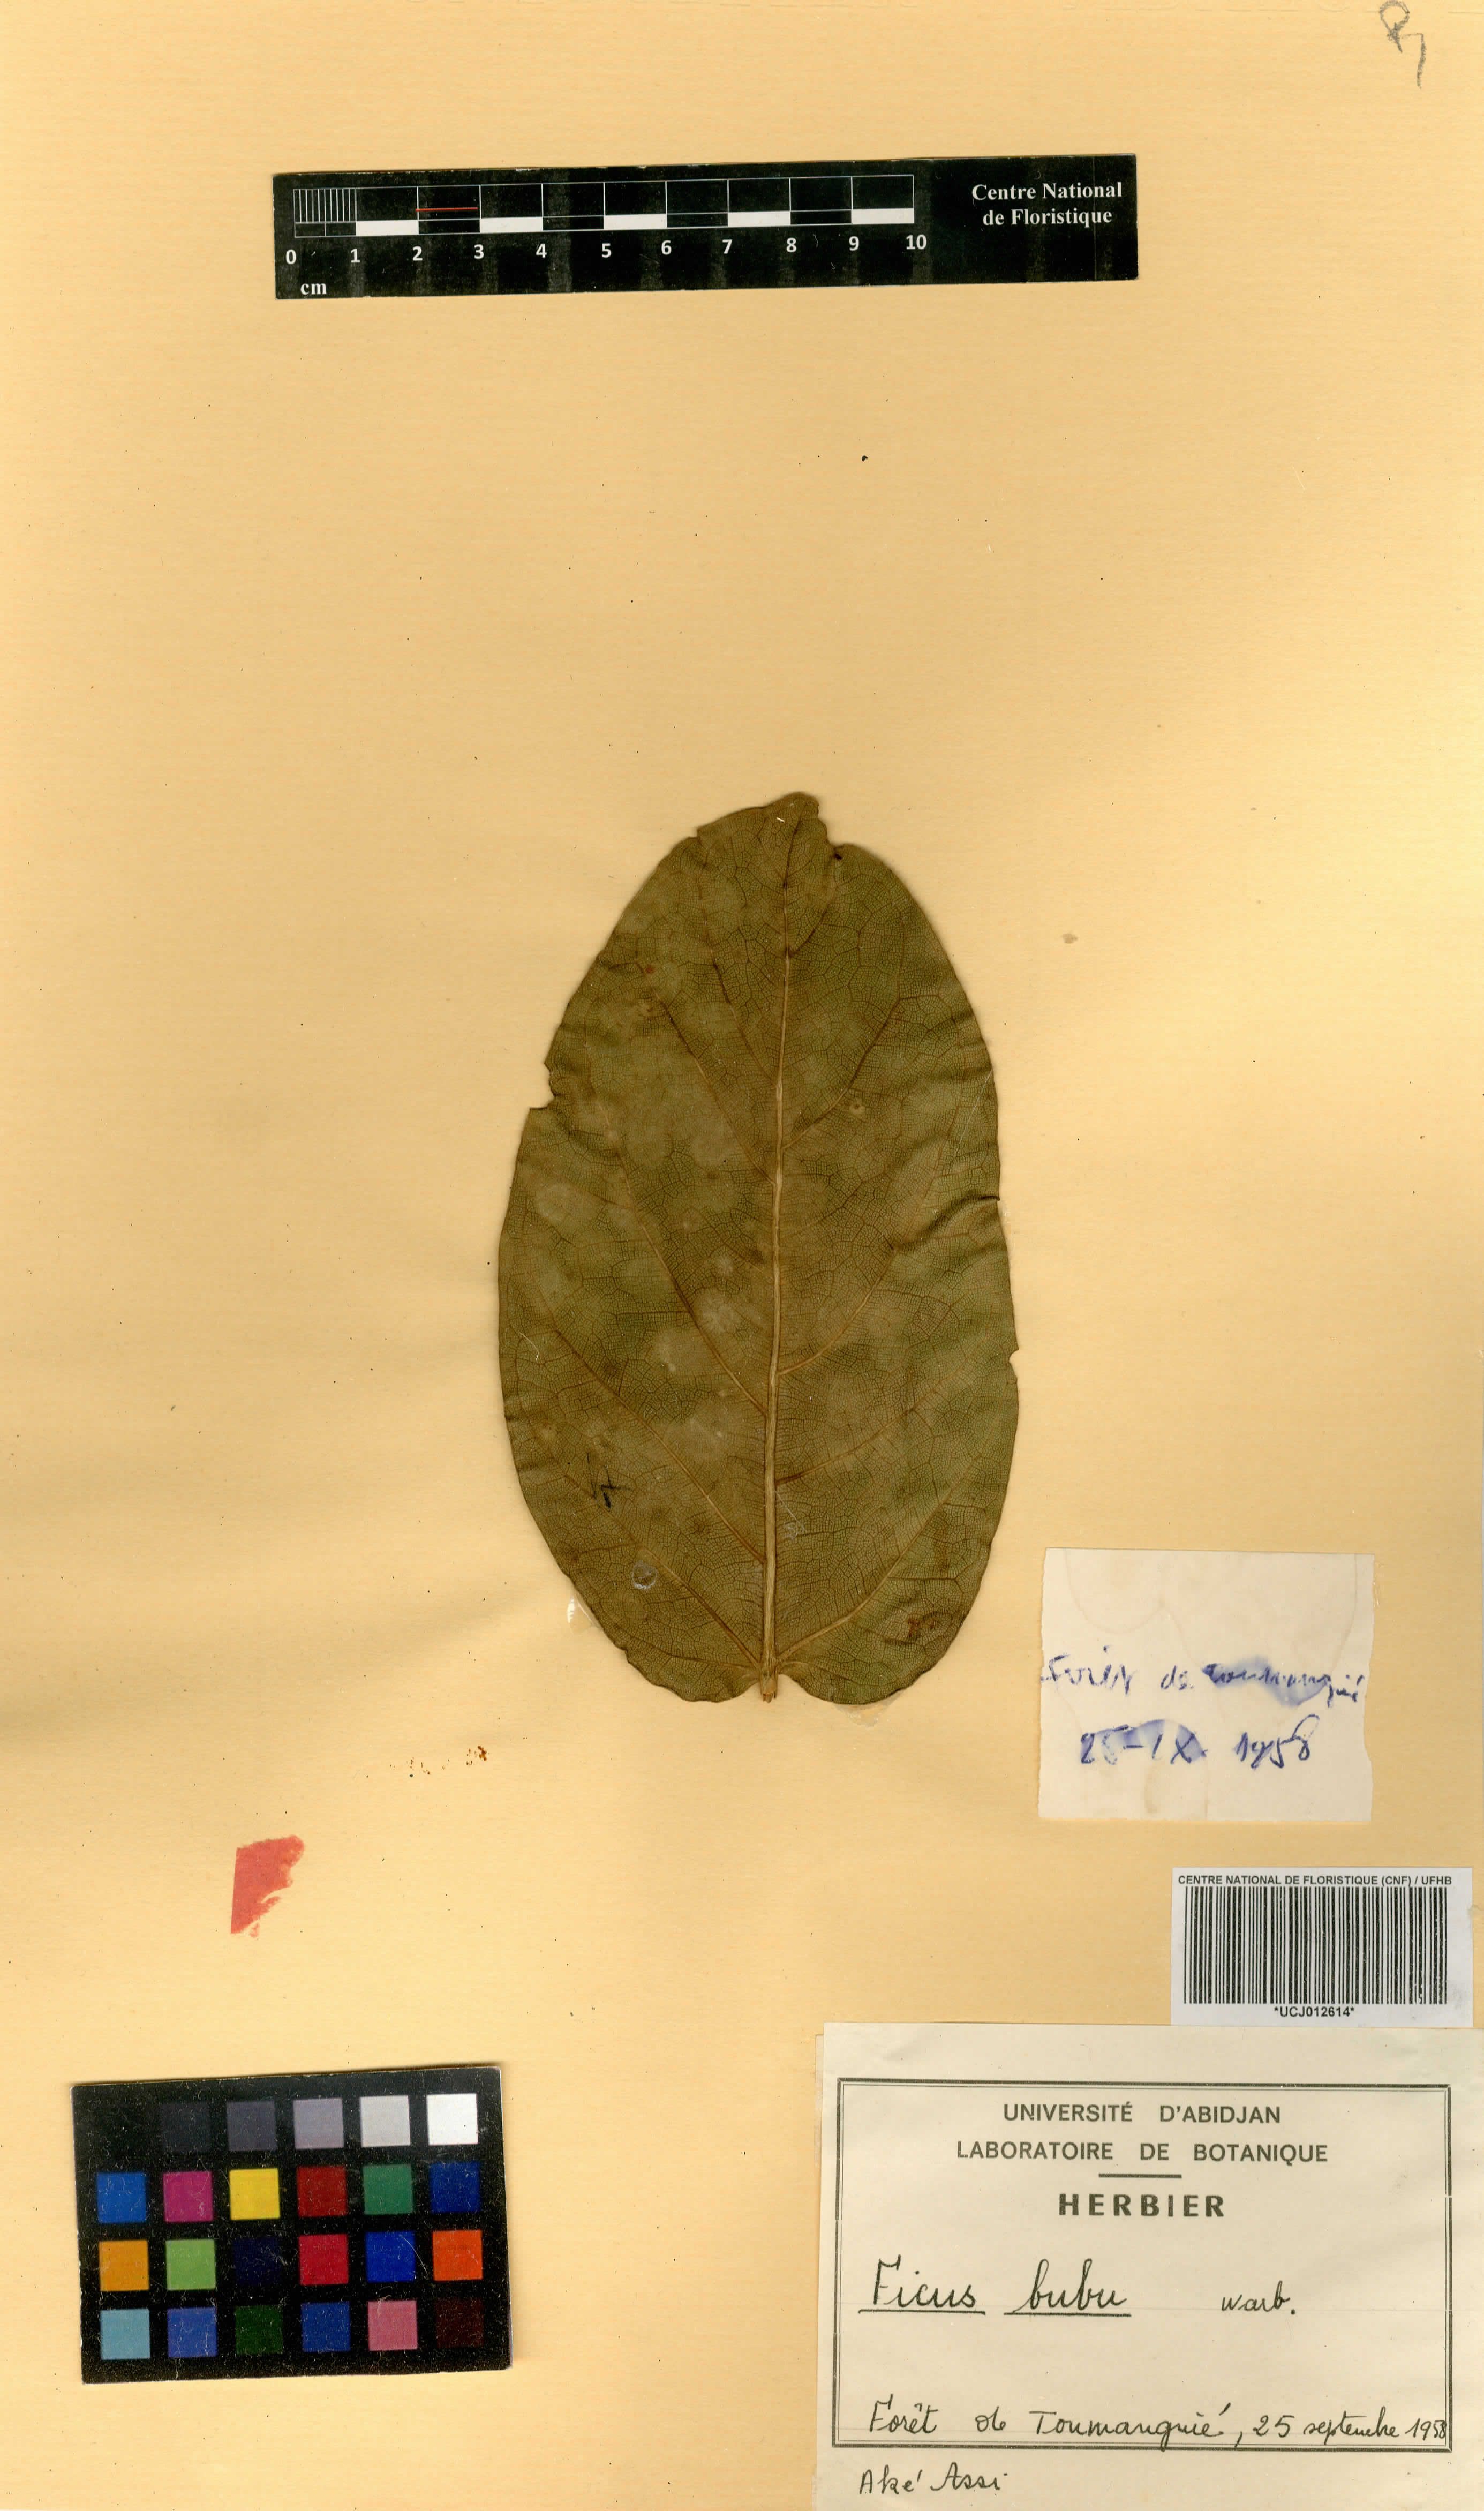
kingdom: Plantae
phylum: Tracheophyta
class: Magnoliopsida
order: Rosales
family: Moraceae
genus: Ficus
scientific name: Ficus bubu
